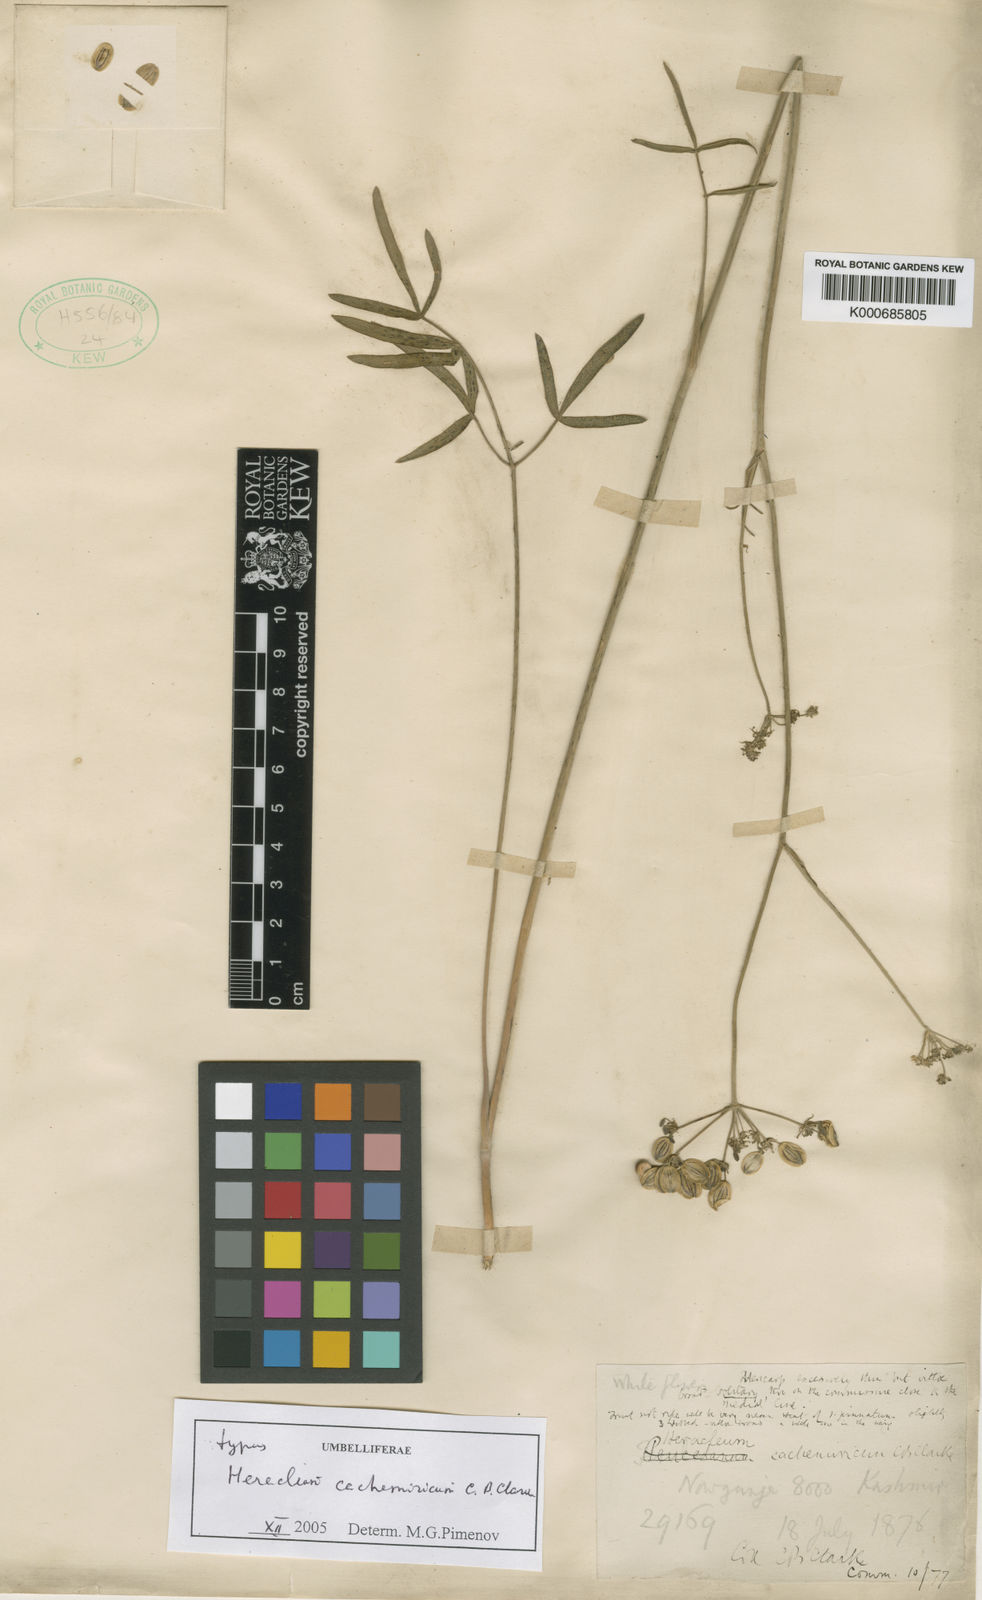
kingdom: Plantae
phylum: Tracheophyta
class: Magnoliopsida
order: Apiales
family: Apiaceae
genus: Tricholaser
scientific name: Tricholaser cachemiricum
